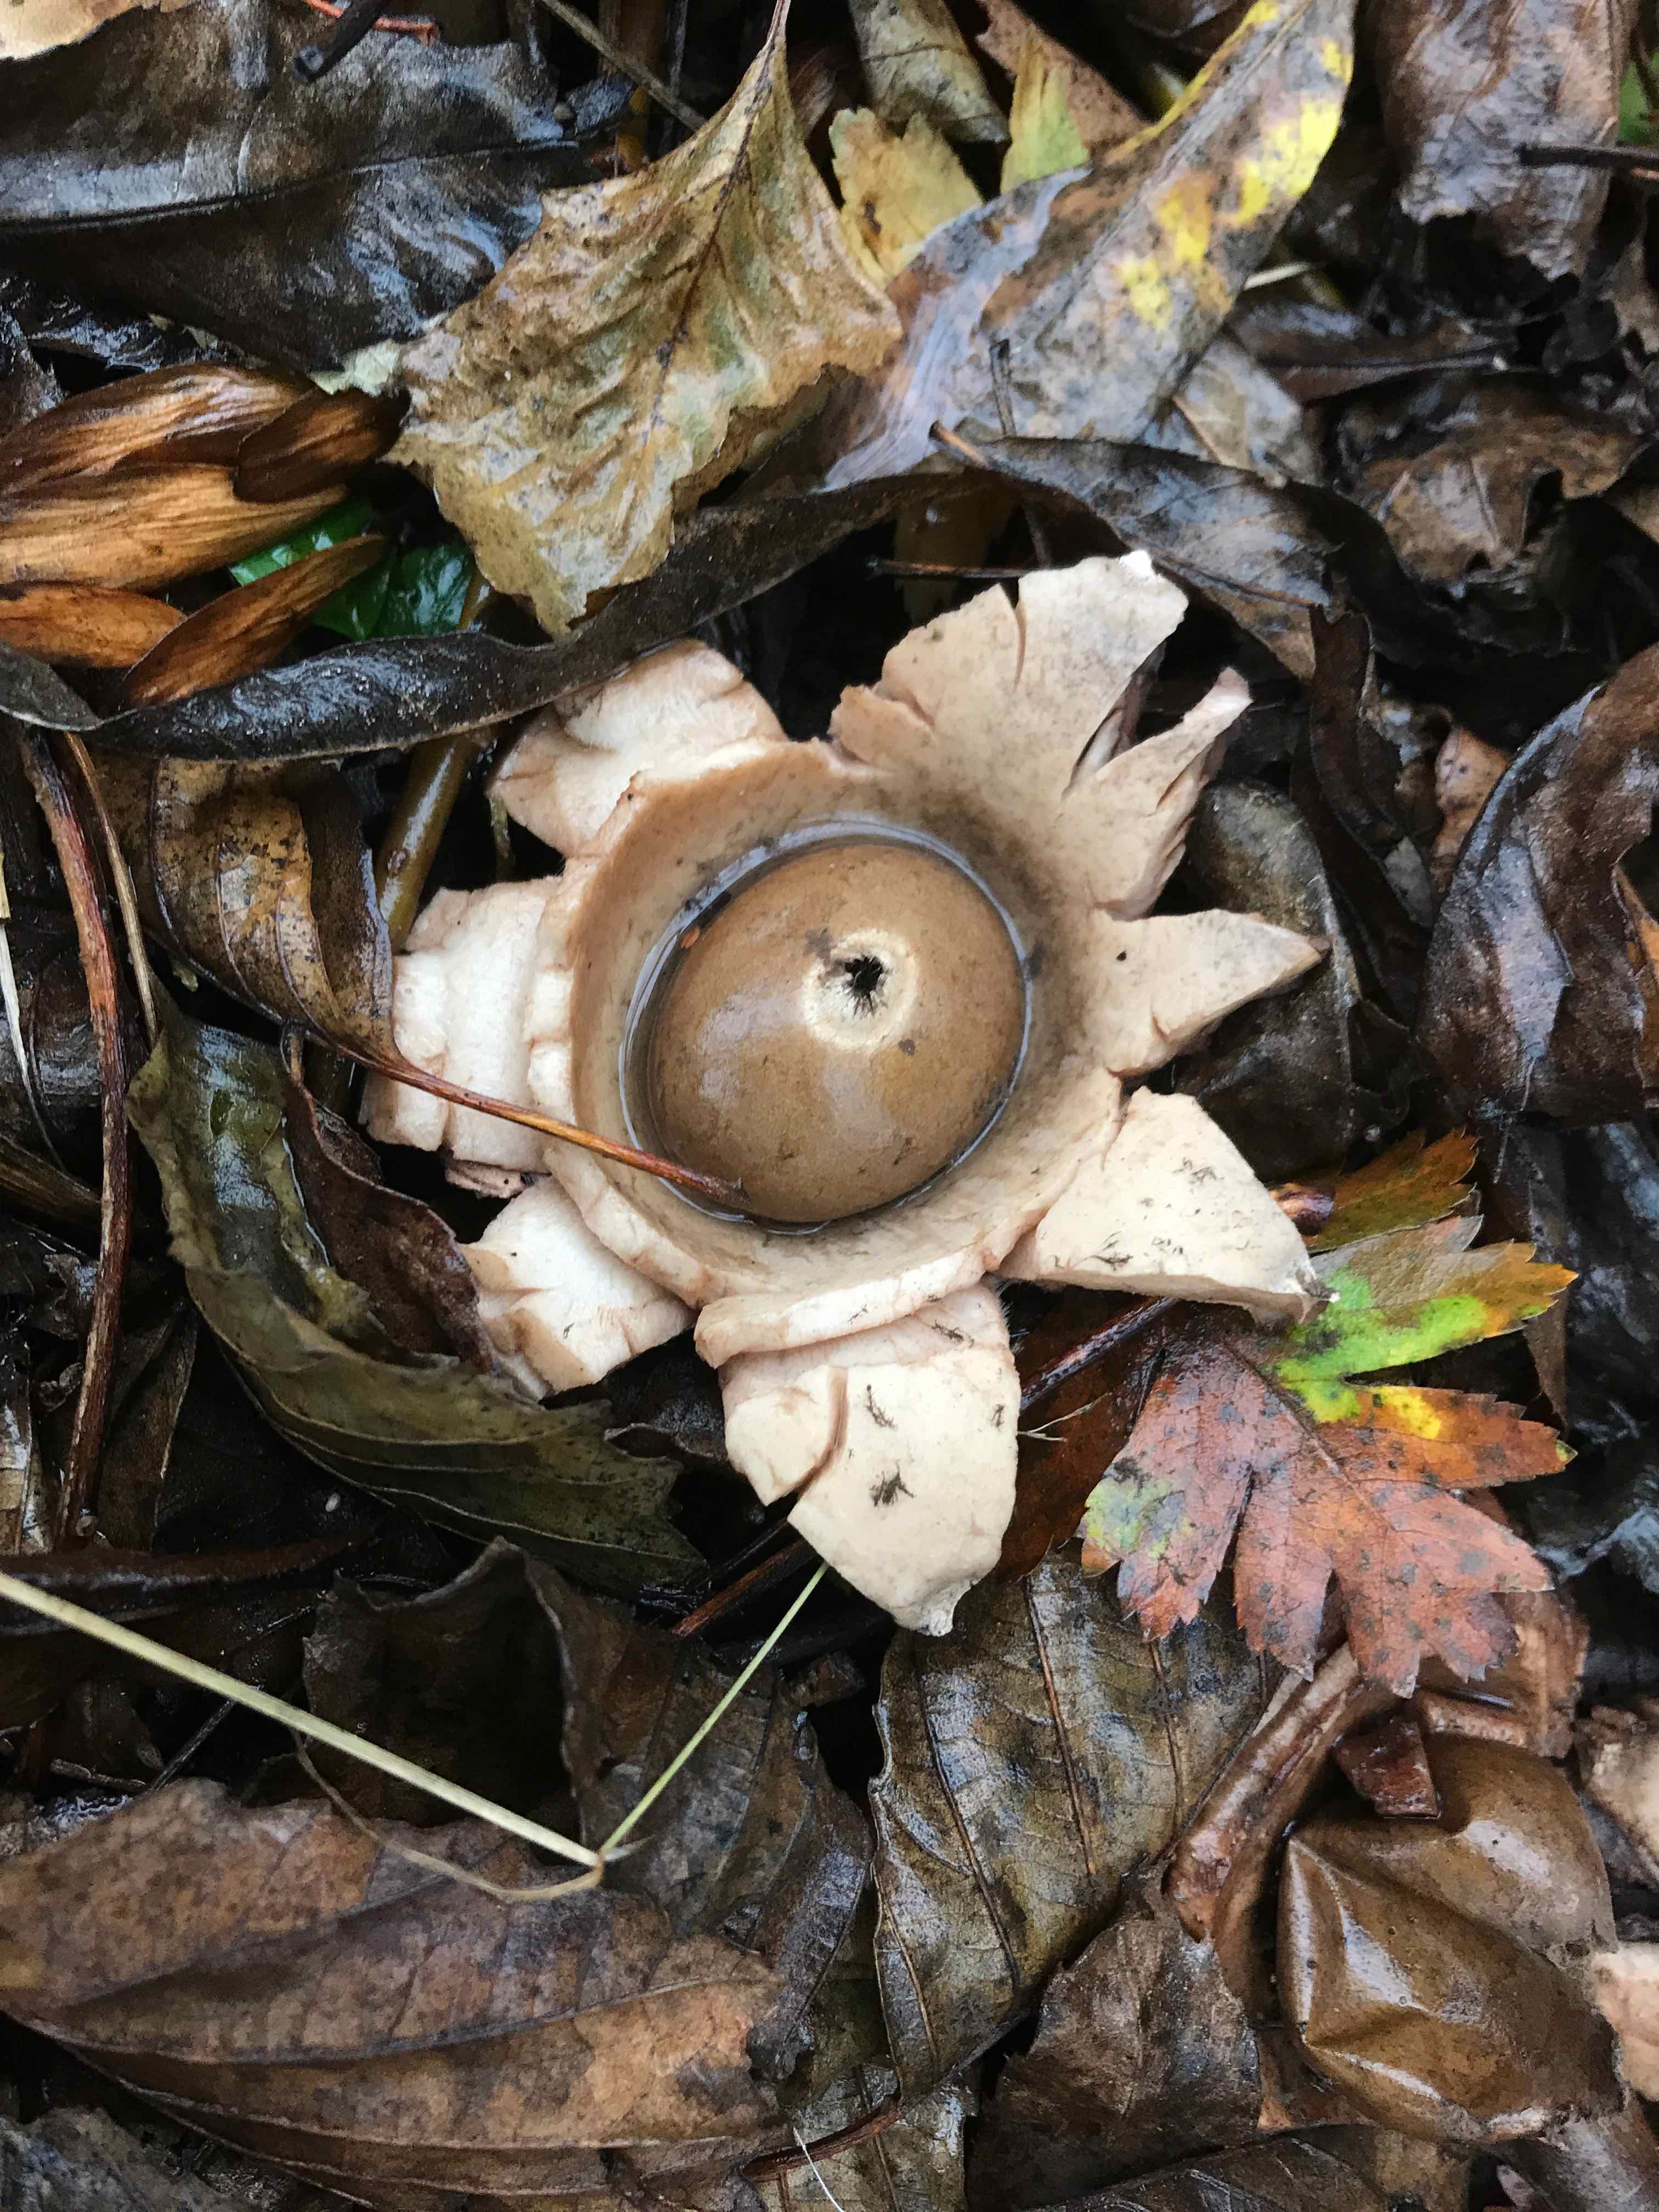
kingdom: Fungi
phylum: Basidiomycota
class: Agaricomycetes
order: Geastrales
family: Geastraceae
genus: Geastrum
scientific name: Geastrum michelianum
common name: kødet stjernebold
